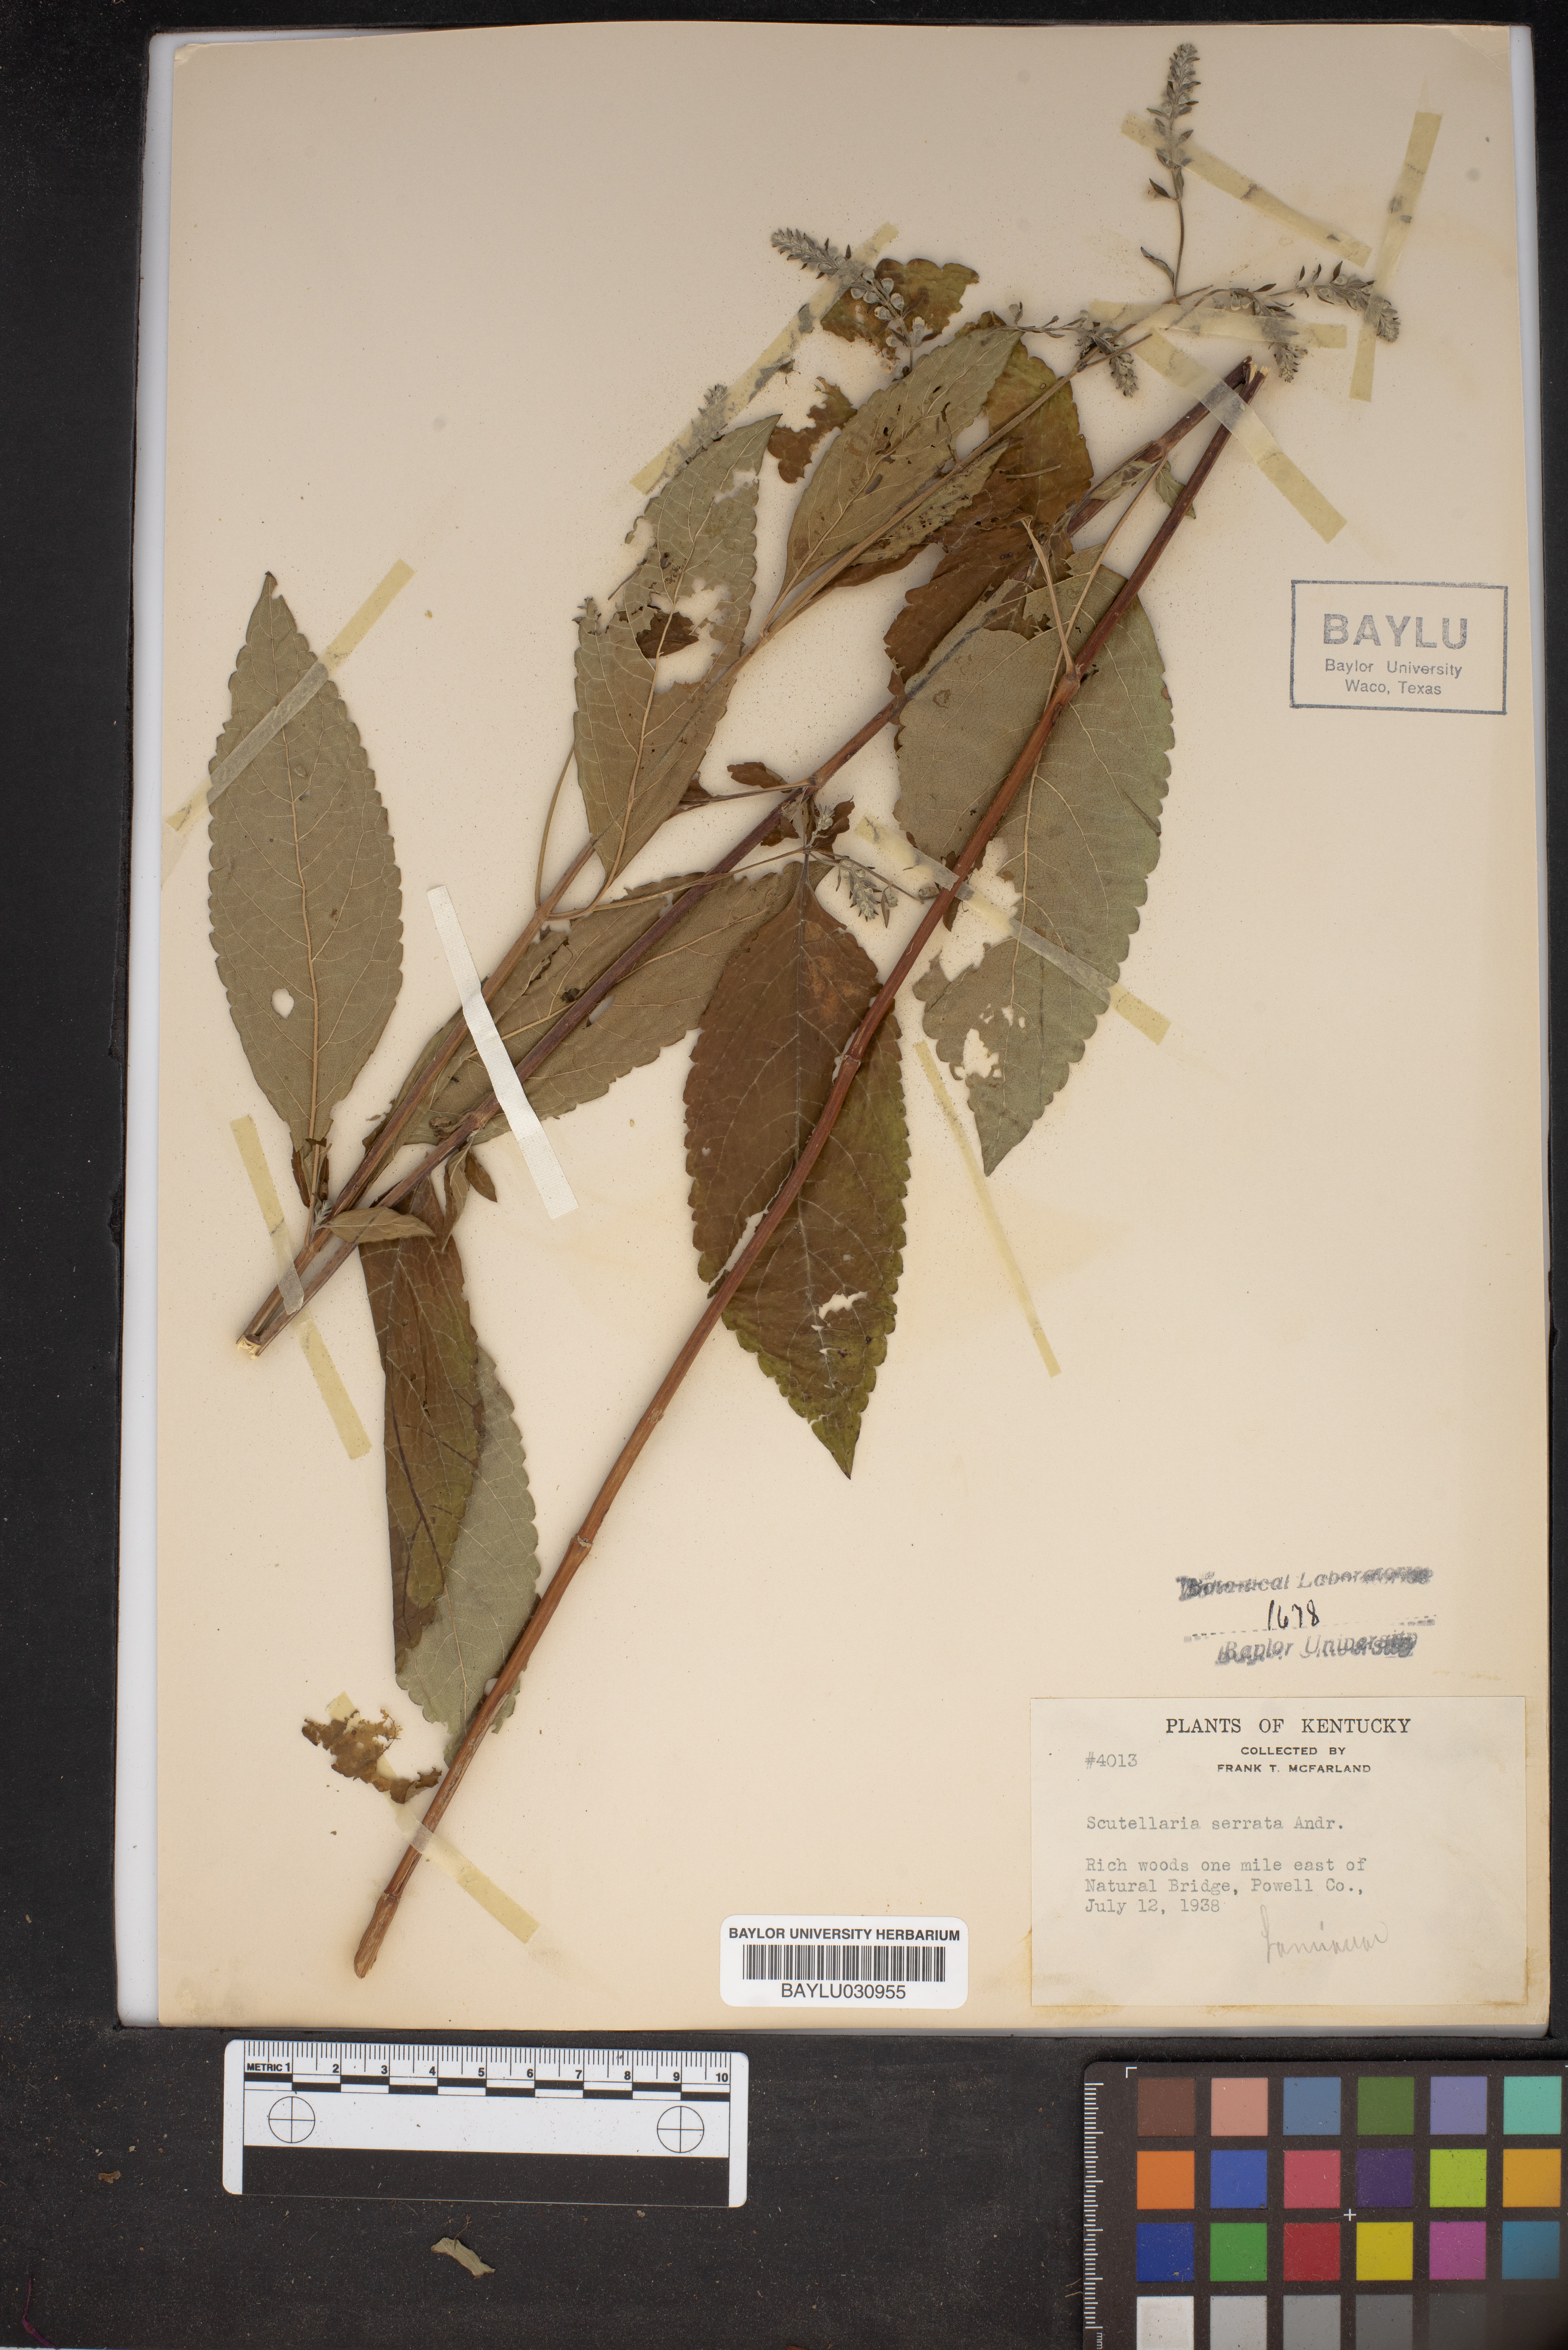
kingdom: Plantae
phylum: Tracheophyta
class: Magnoliopsida
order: Lamiales
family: Lamiaceae
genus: Scutellaria
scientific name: Scutellaria serrata
